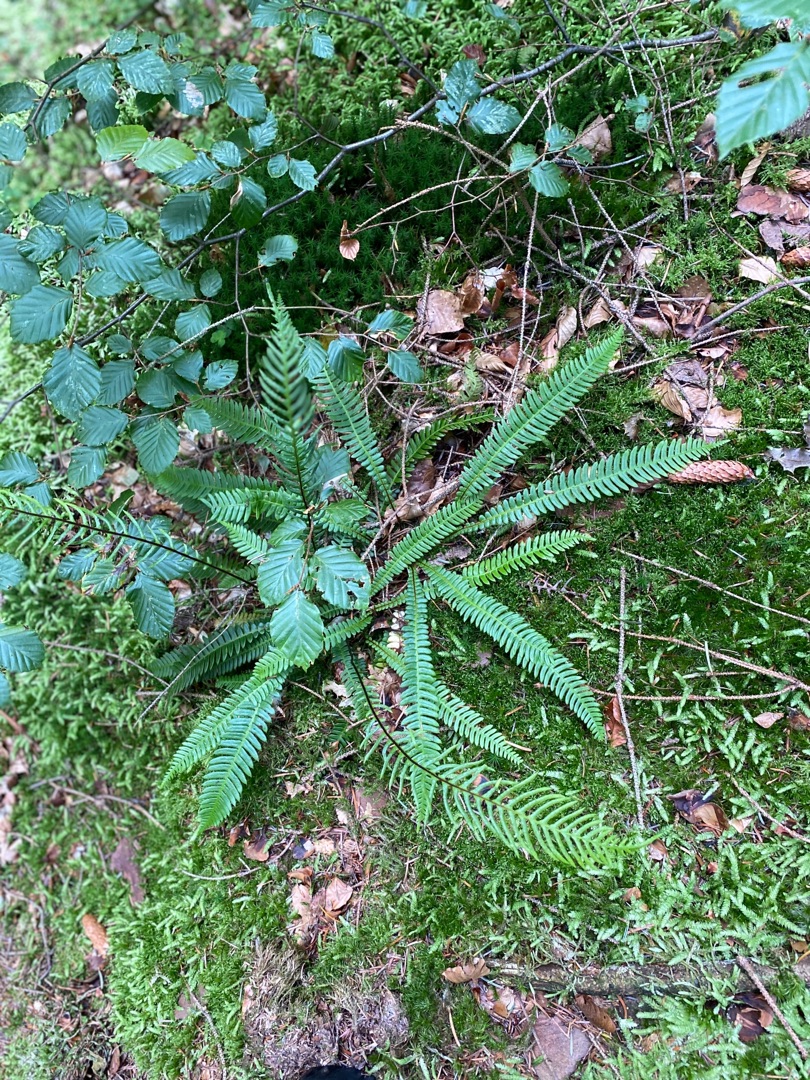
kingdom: Plantae
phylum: Tracheophyta
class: Polypodiopsida
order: Polypodiales
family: Blechnaceae
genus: Struthiopteris
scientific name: Struthiopteris spicant
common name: Kambregne
